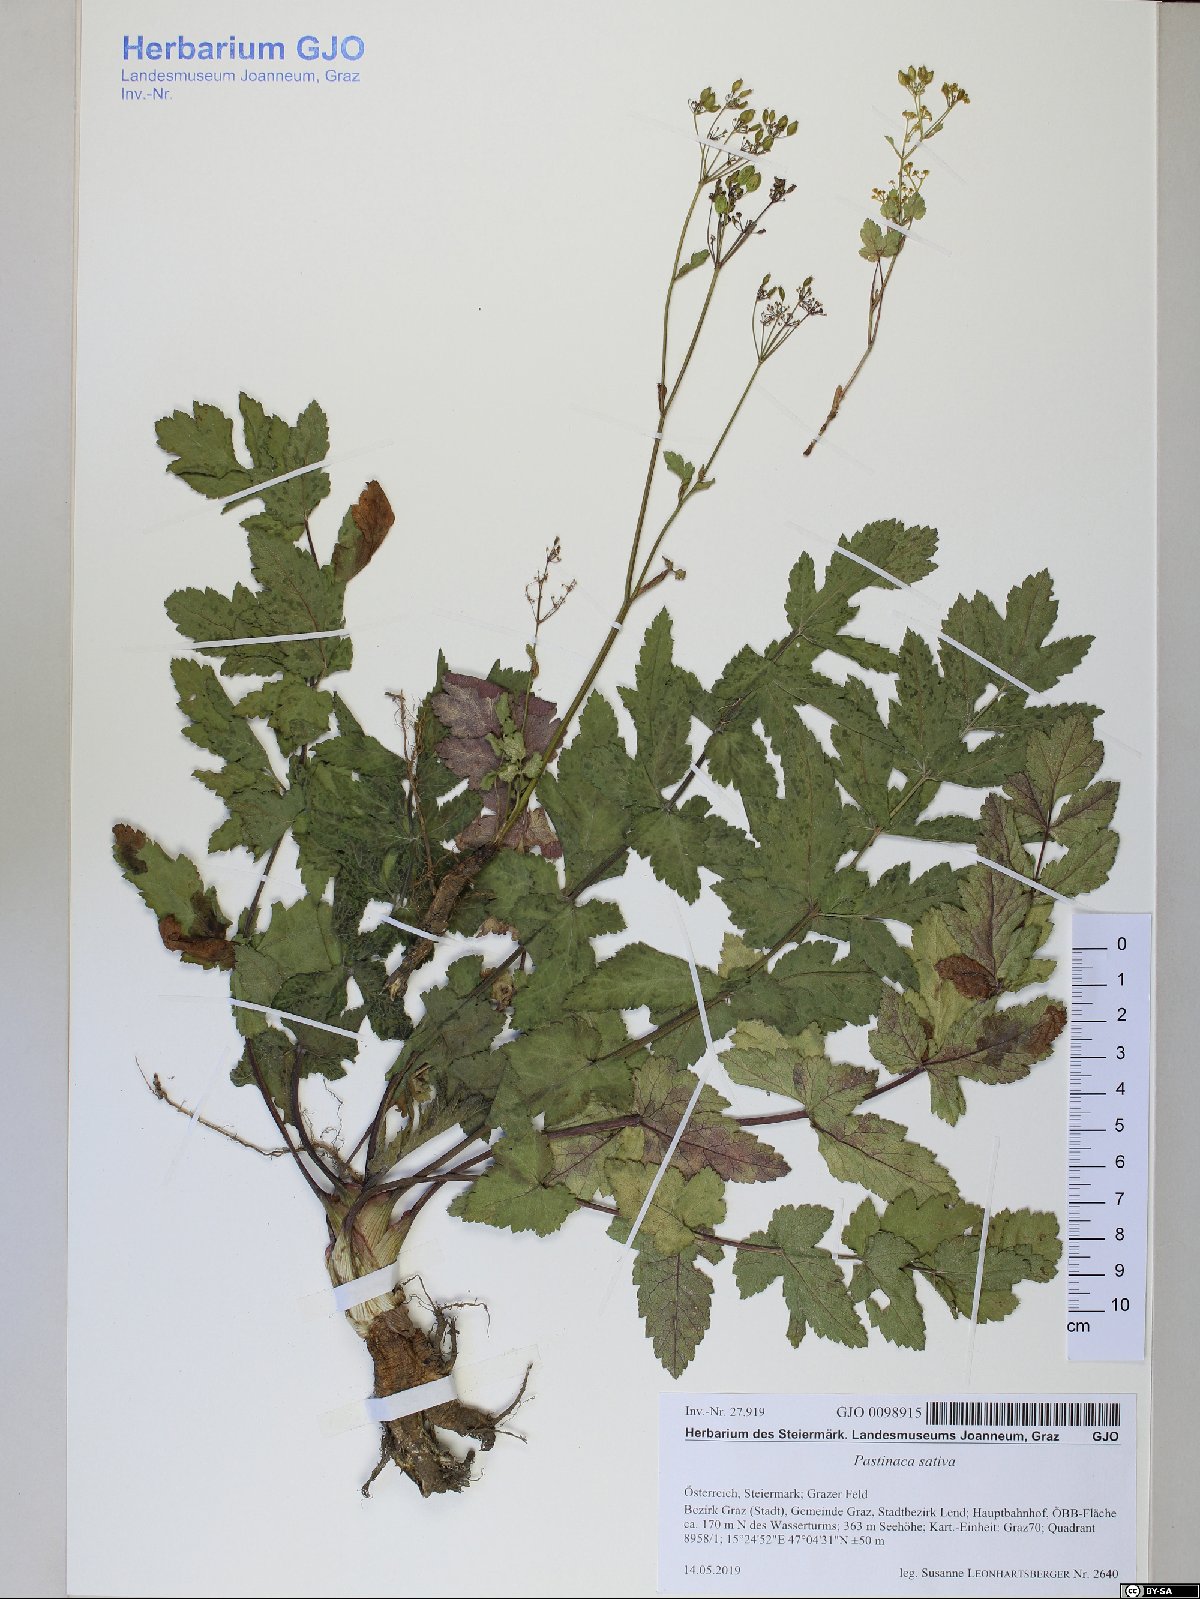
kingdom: Plantae
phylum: Tracheophyta
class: Magnoliopsida
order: Apiales
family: Apiaceae
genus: Pastinaca
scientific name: Pastinaca sativa
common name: Wild parsnip
